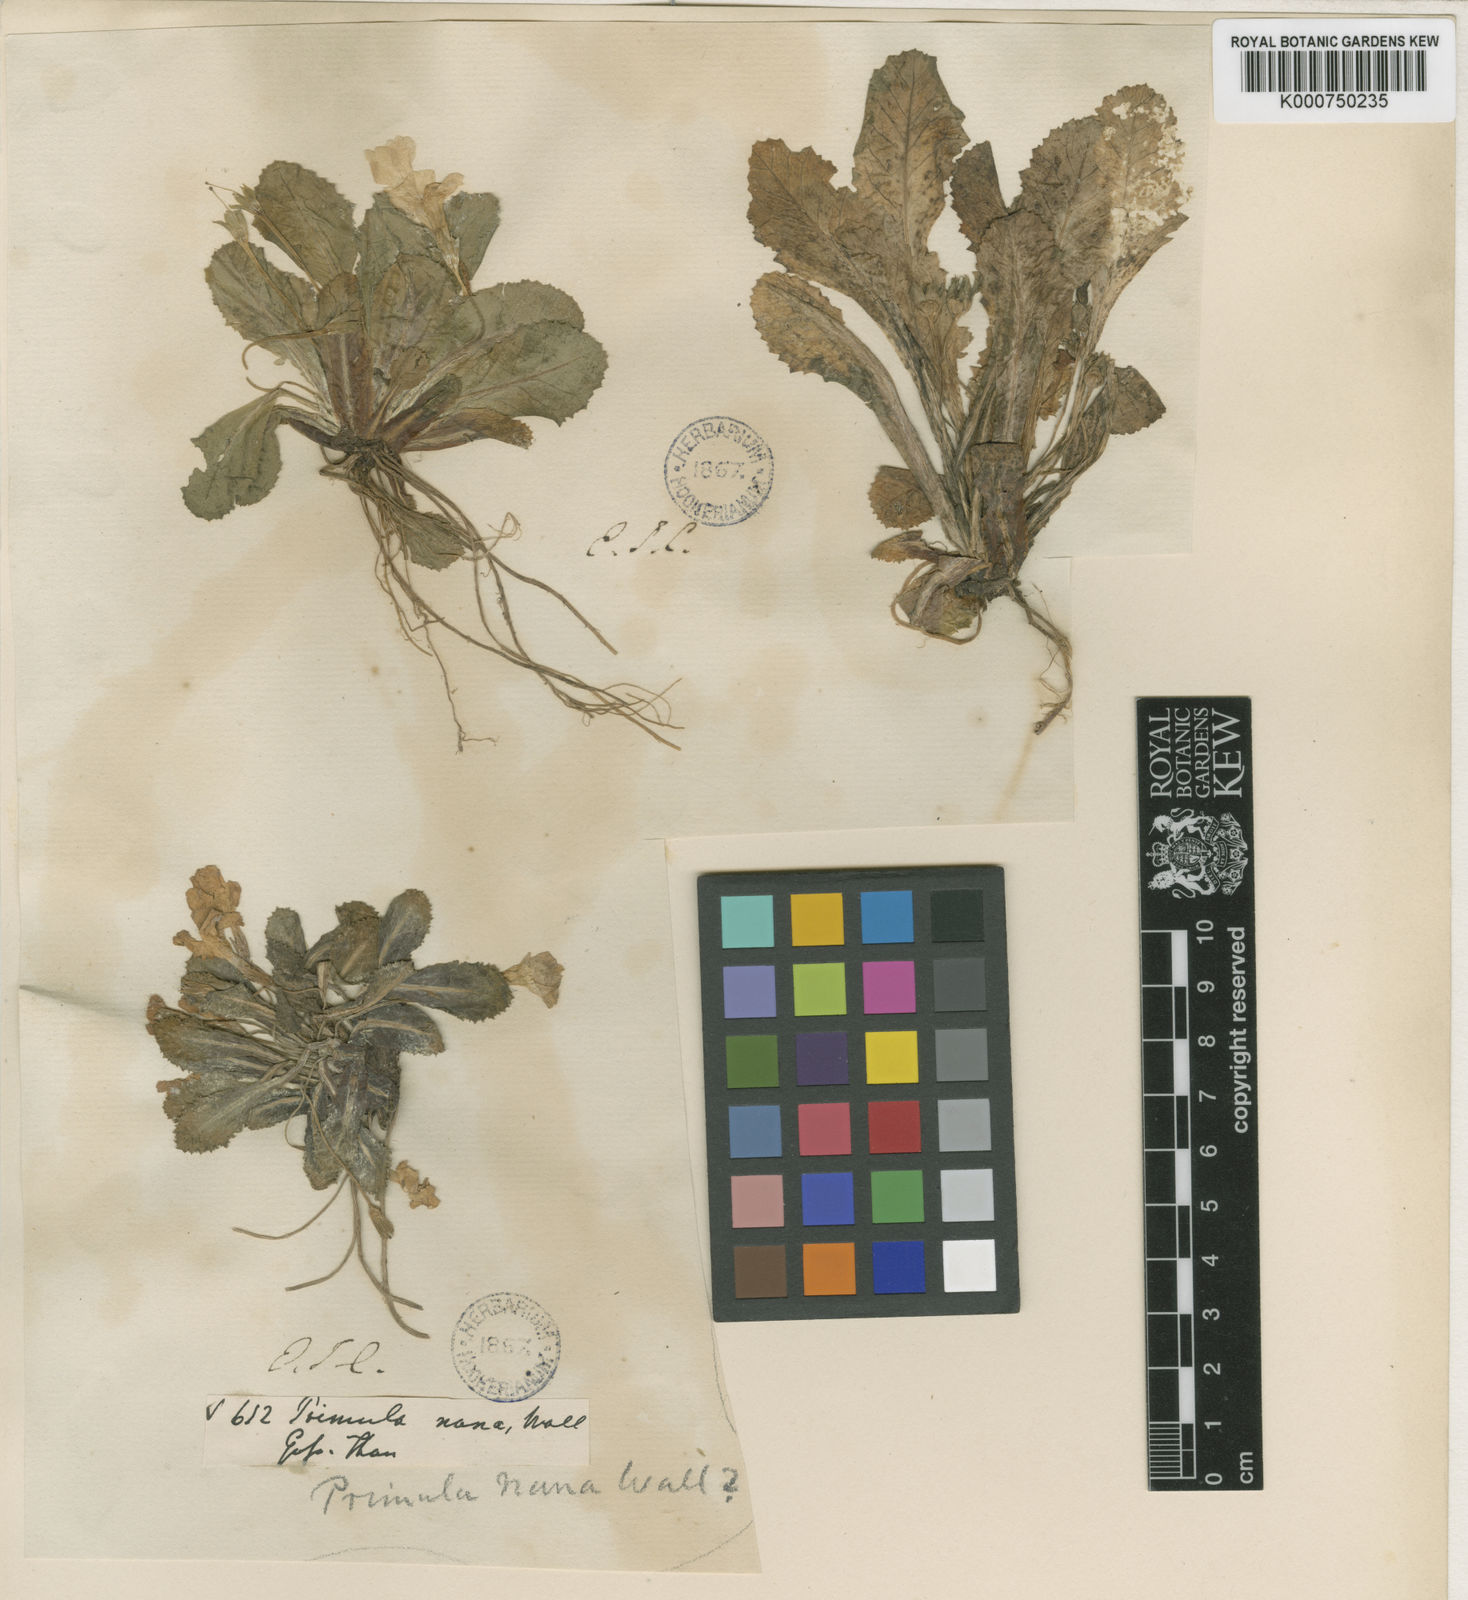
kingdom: Plantae
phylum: Tracheophyta
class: Magnoliopsida
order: Ericales
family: Primulaceae
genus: Primula
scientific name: Primula nana
